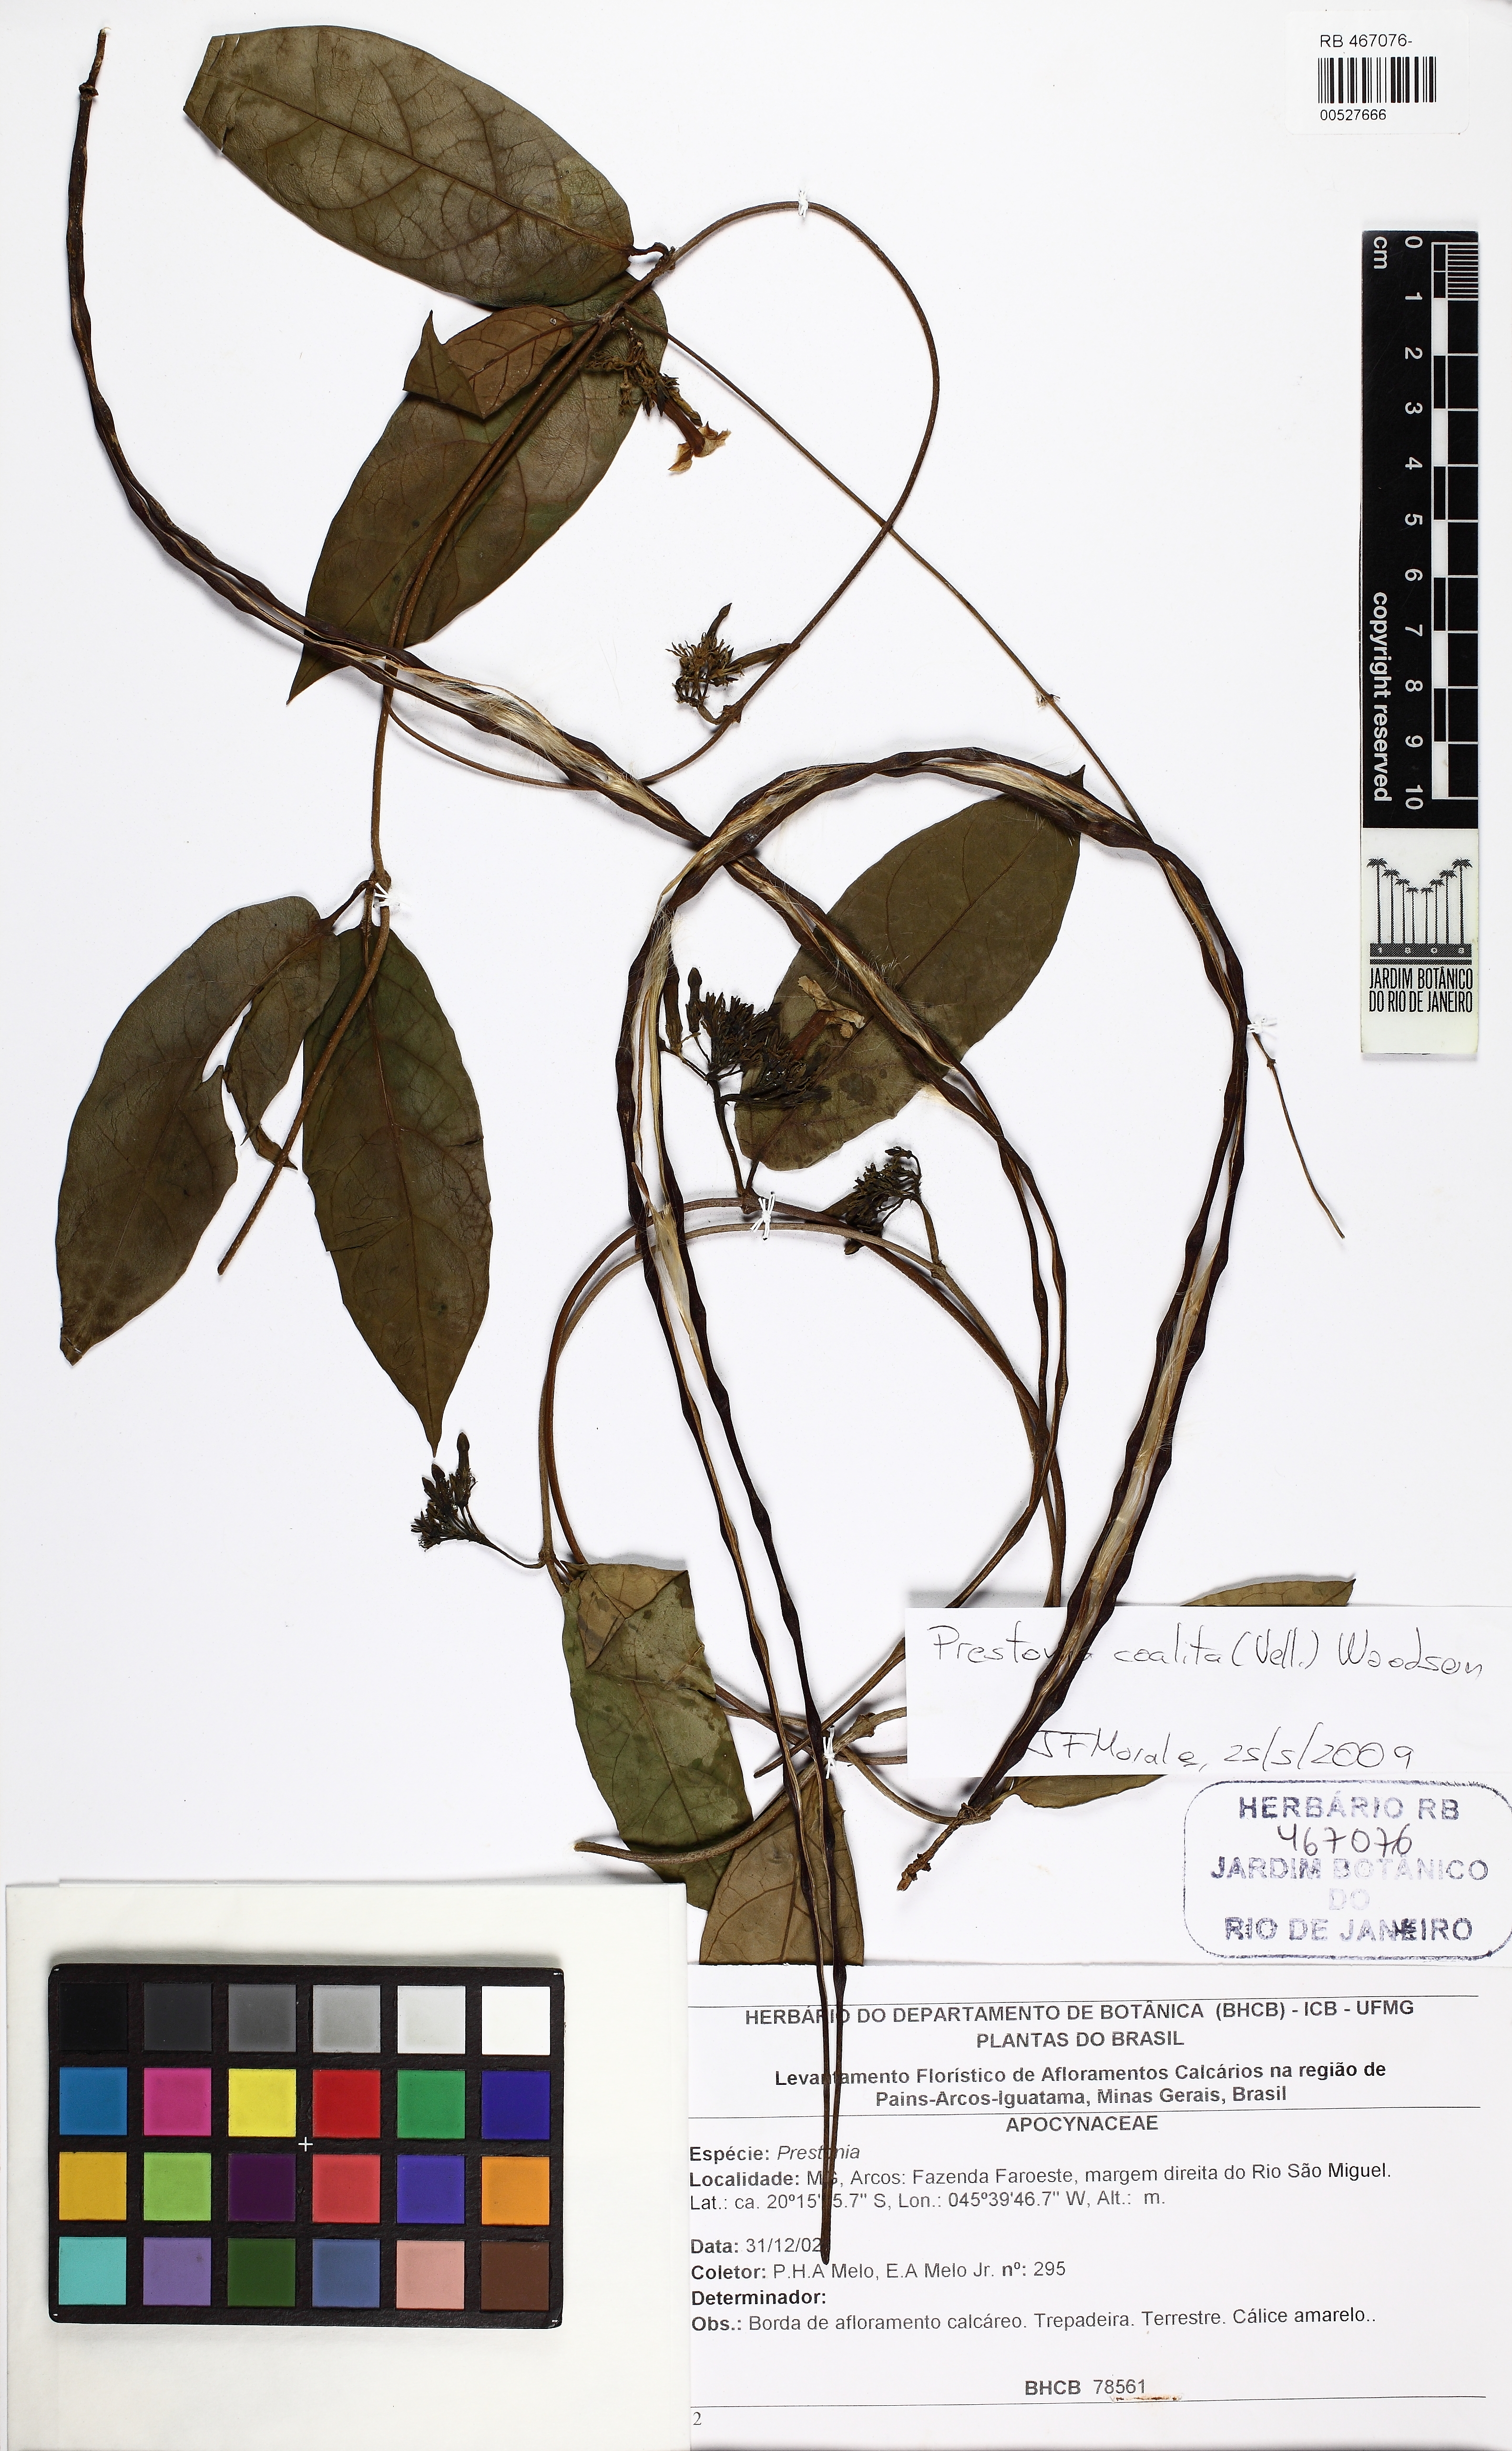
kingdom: Plantae
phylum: Tracheophyta
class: Magnoliopsida
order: Gentianales
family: Apocynaceae
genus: Prestonia
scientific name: Prestonia coalita
